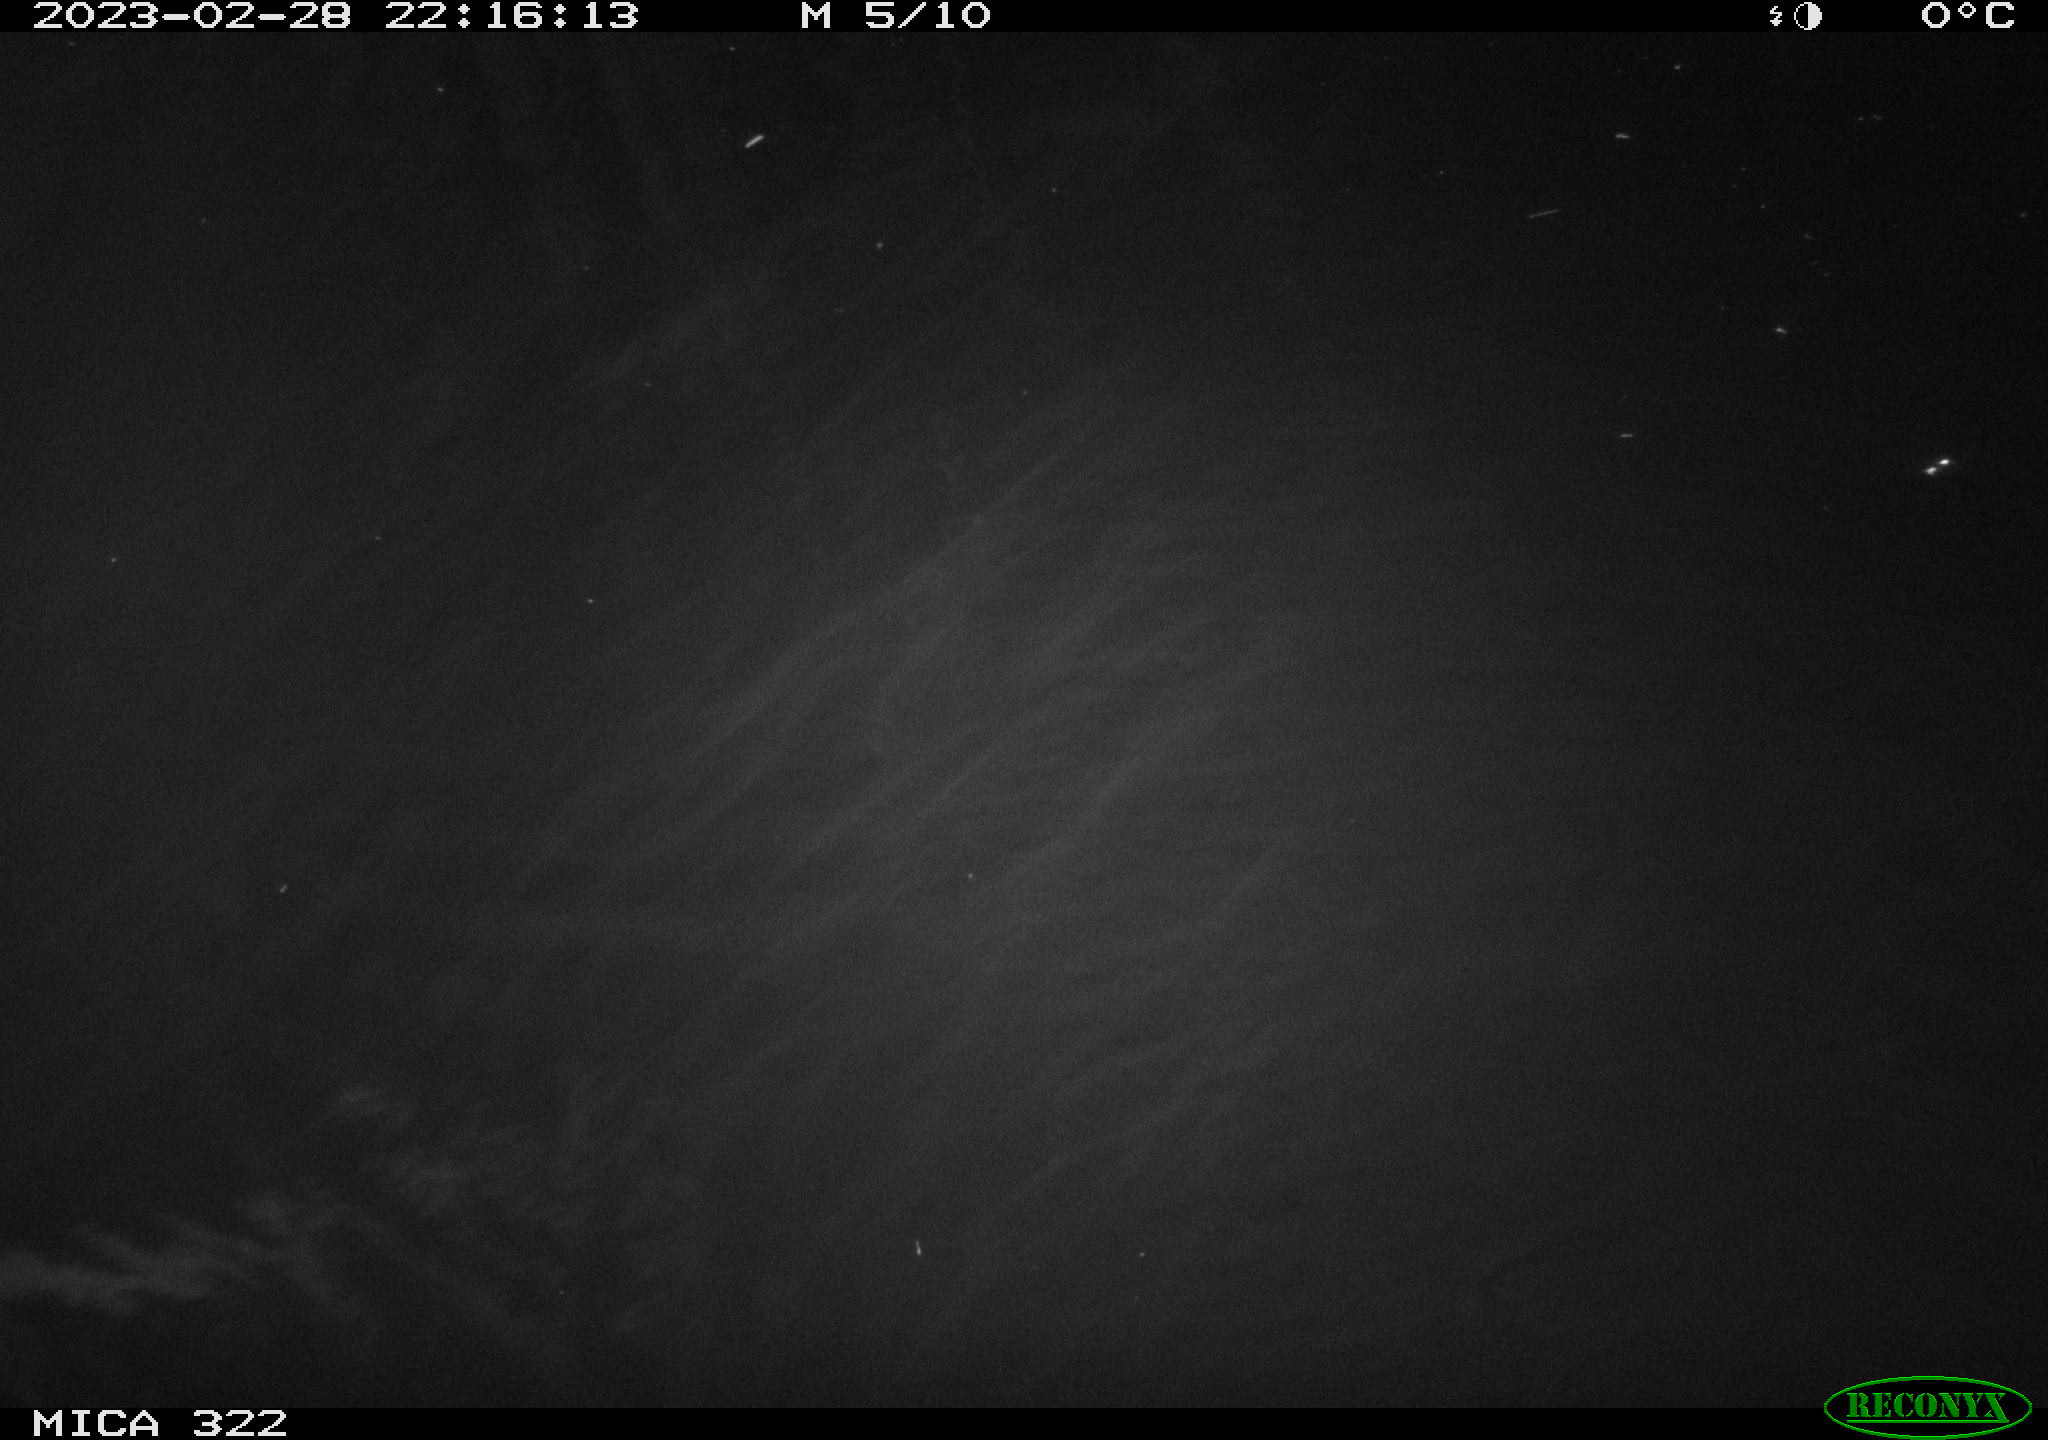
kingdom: Animalia
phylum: Chordata
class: Mammalia
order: Rodentia
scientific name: Rodentia
